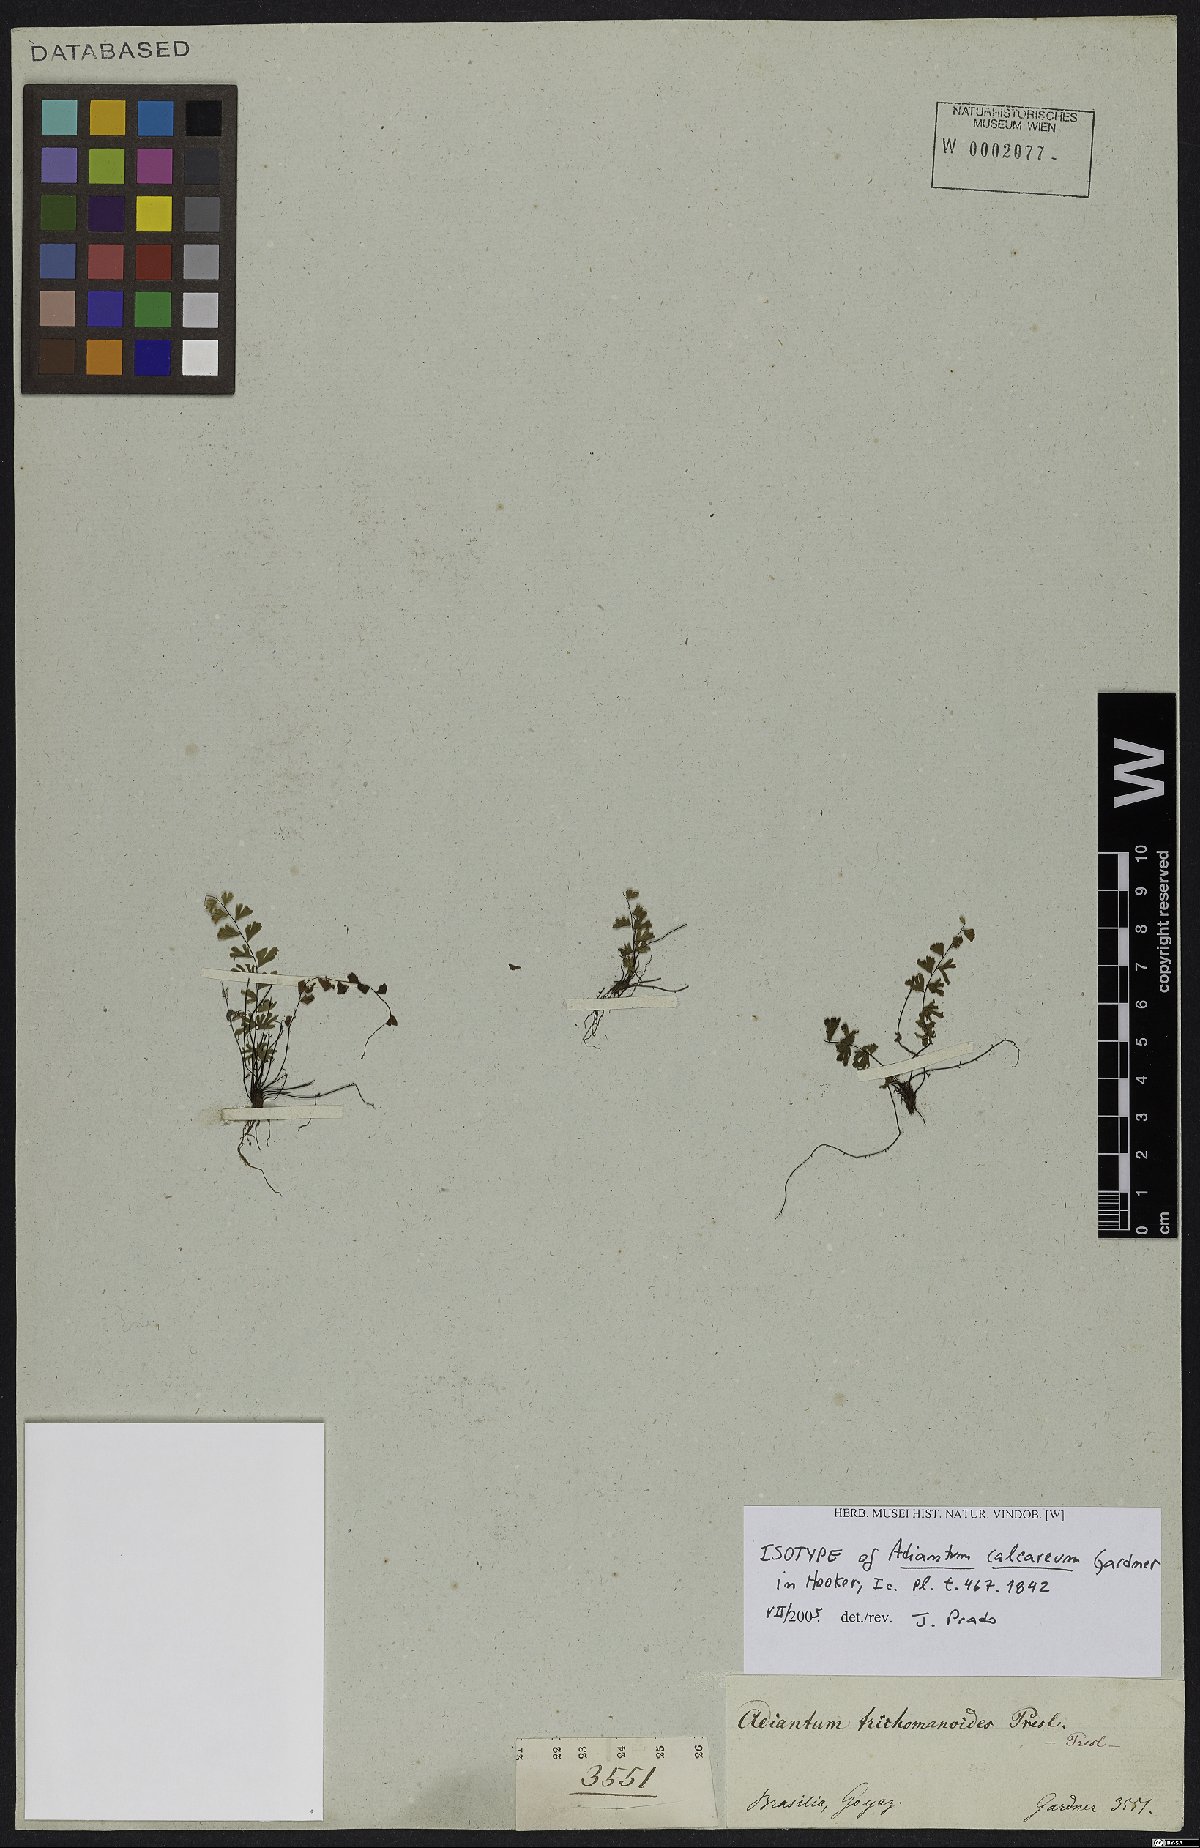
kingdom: Plantae
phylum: Tracheophyta
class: Polypodiopsida
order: Polypodiales
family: Pteridaceae
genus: Adiantum
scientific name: Adiantum calcareum
